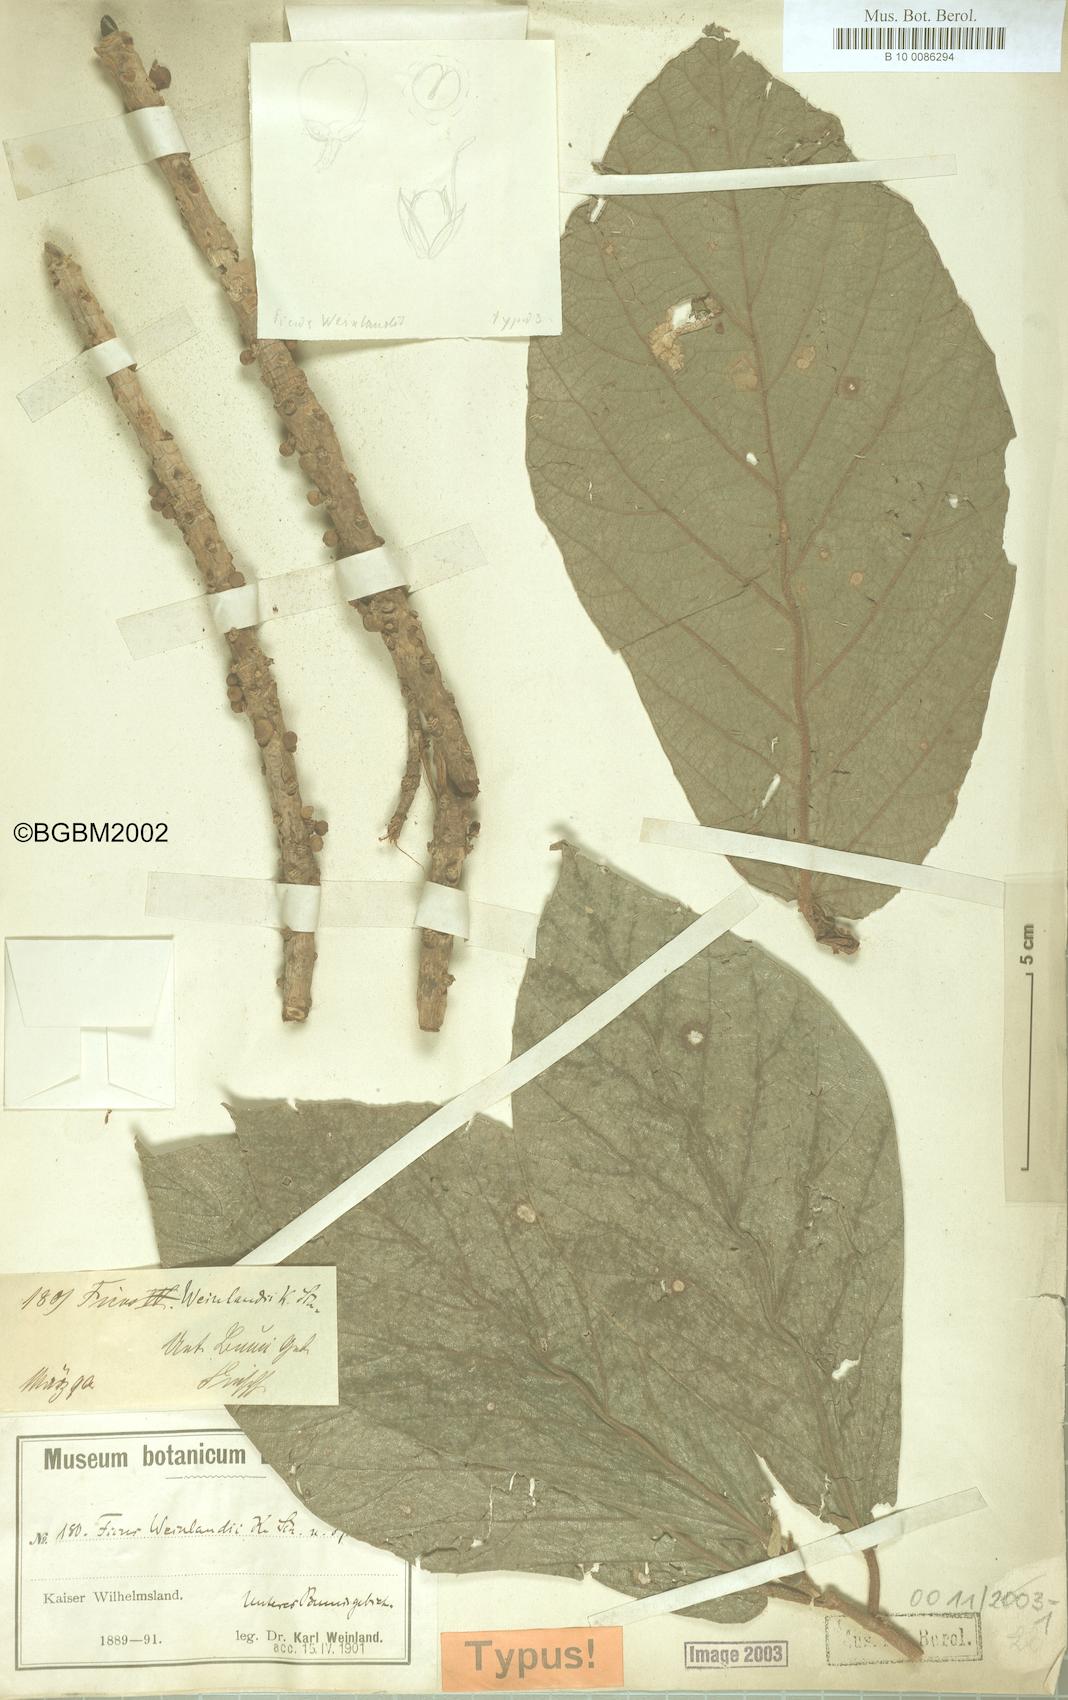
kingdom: Plantae
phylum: Tracheophyta
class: Magnoliopsida
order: Rosales
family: Moraceae
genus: Ficus
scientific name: Ficus caulocarpa
